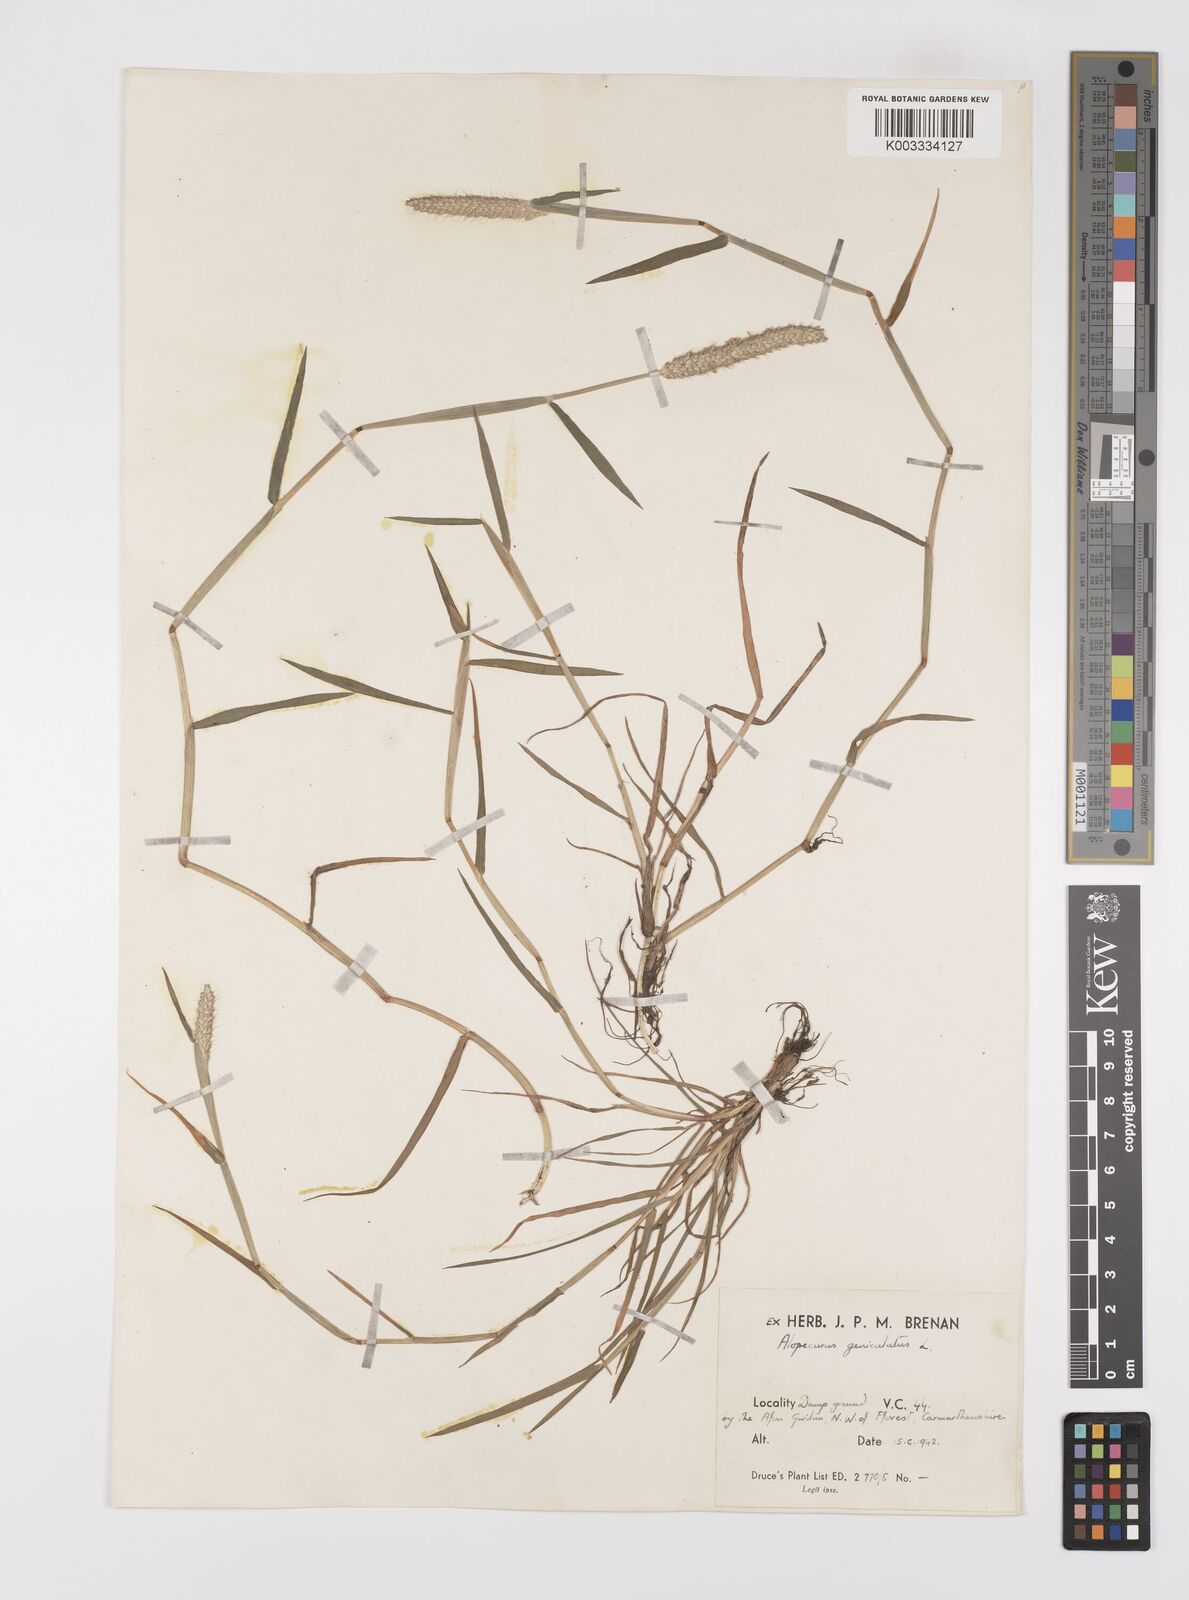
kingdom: Plantae
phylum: Tracheophyta
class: Liliopsida
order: Poales
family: Poaceae
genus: Alopecurus
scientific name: Alopecurus geniculatus
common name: Water foxtail
